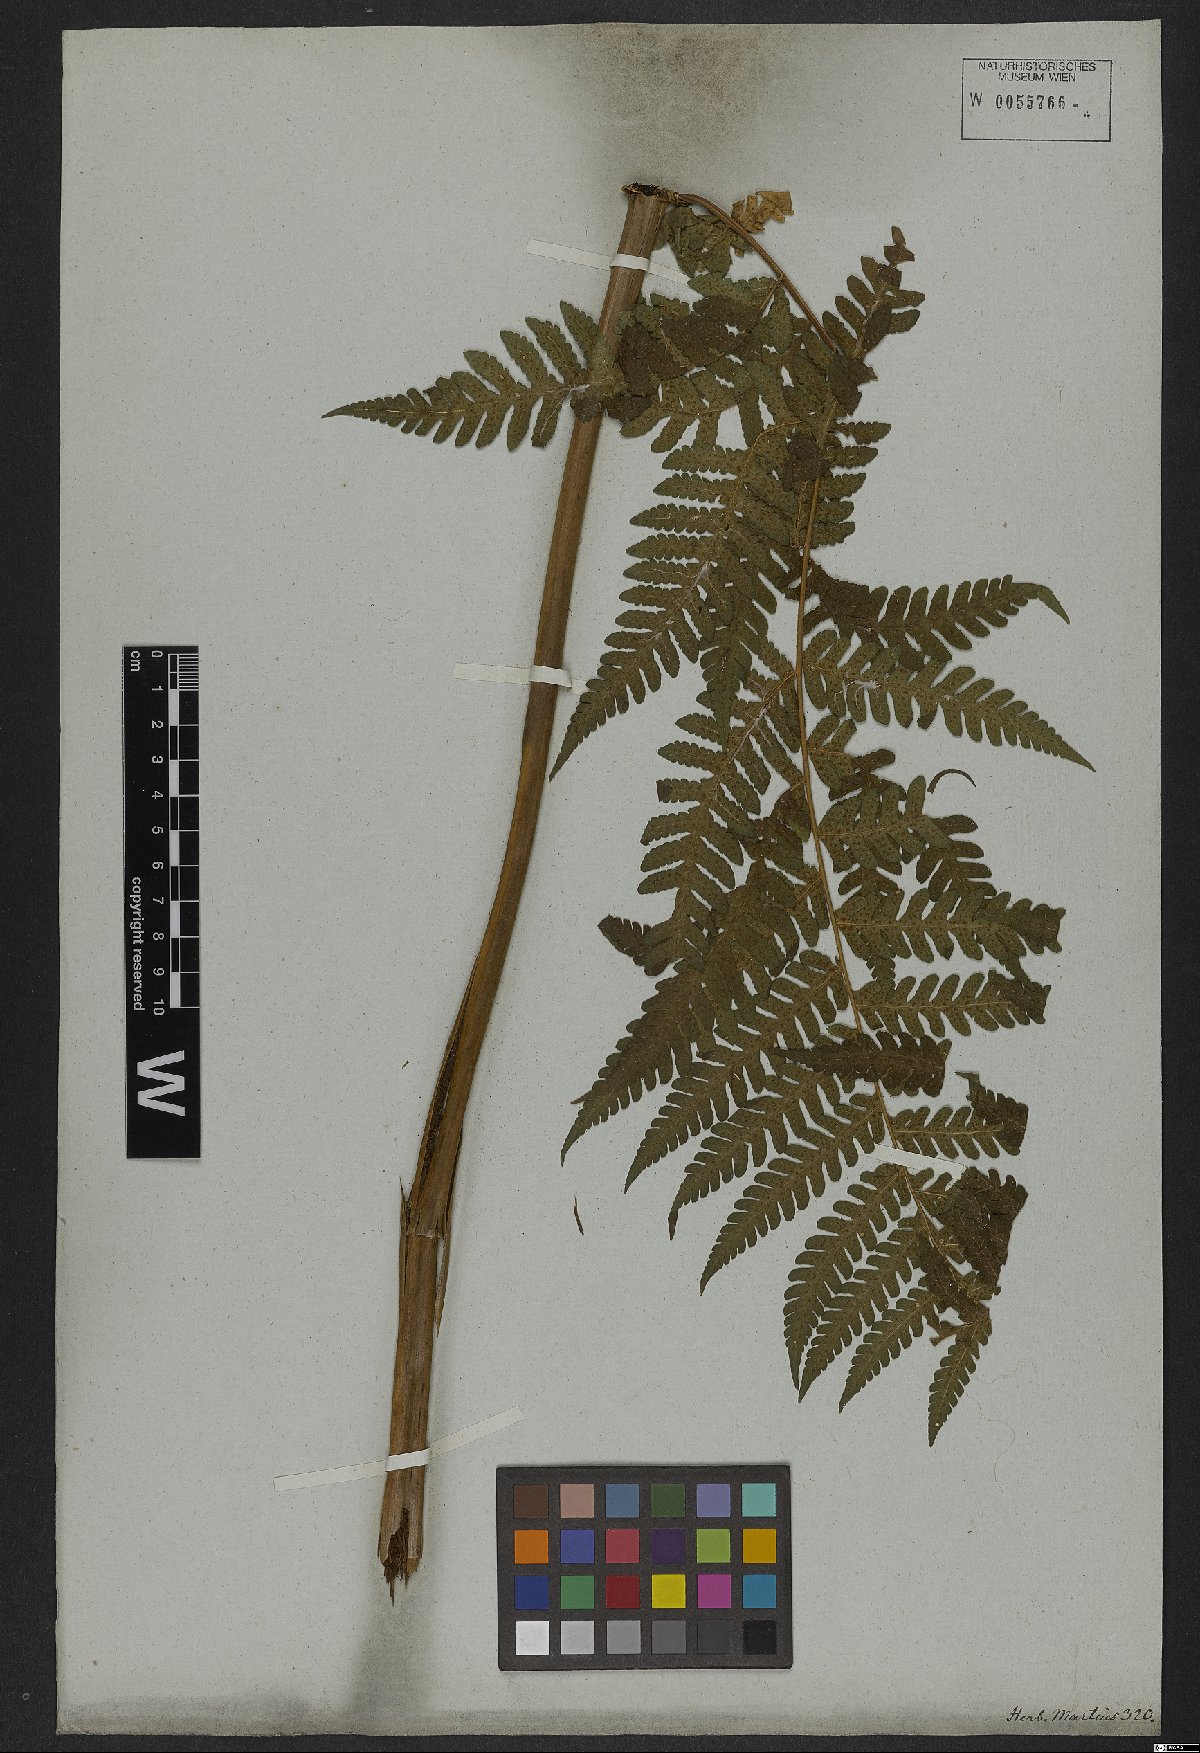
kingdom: Plantae
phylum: Tracheophyta
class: Polypodiopsida
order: Polypodiales
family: Dryopteridaceae
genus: Megalastrum
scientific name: Megalastrum subincisum
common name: Jagleaf junglefern
